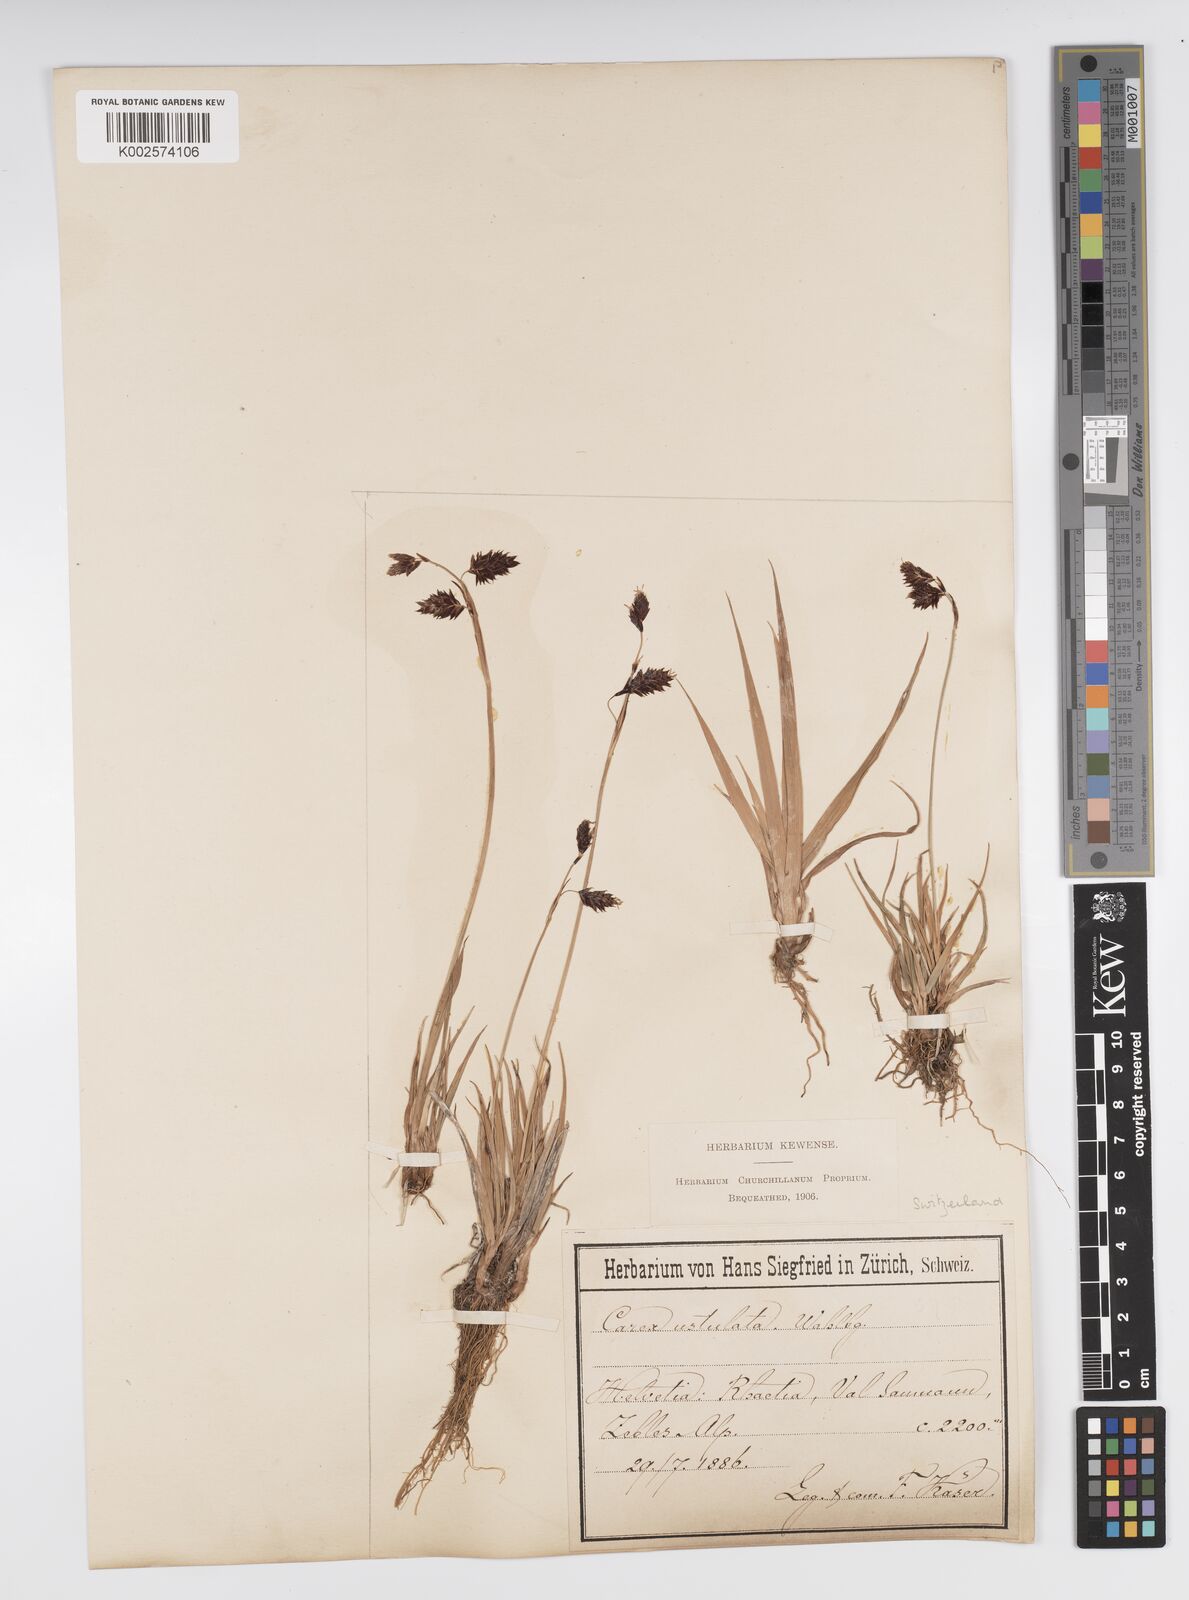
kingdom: Plantae
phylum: Tracheophyta
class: Liliopsida
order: Poales
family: Cyperaceae
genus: Carex
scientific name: Carex atrofusca
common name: Scorched alpine-sedge
